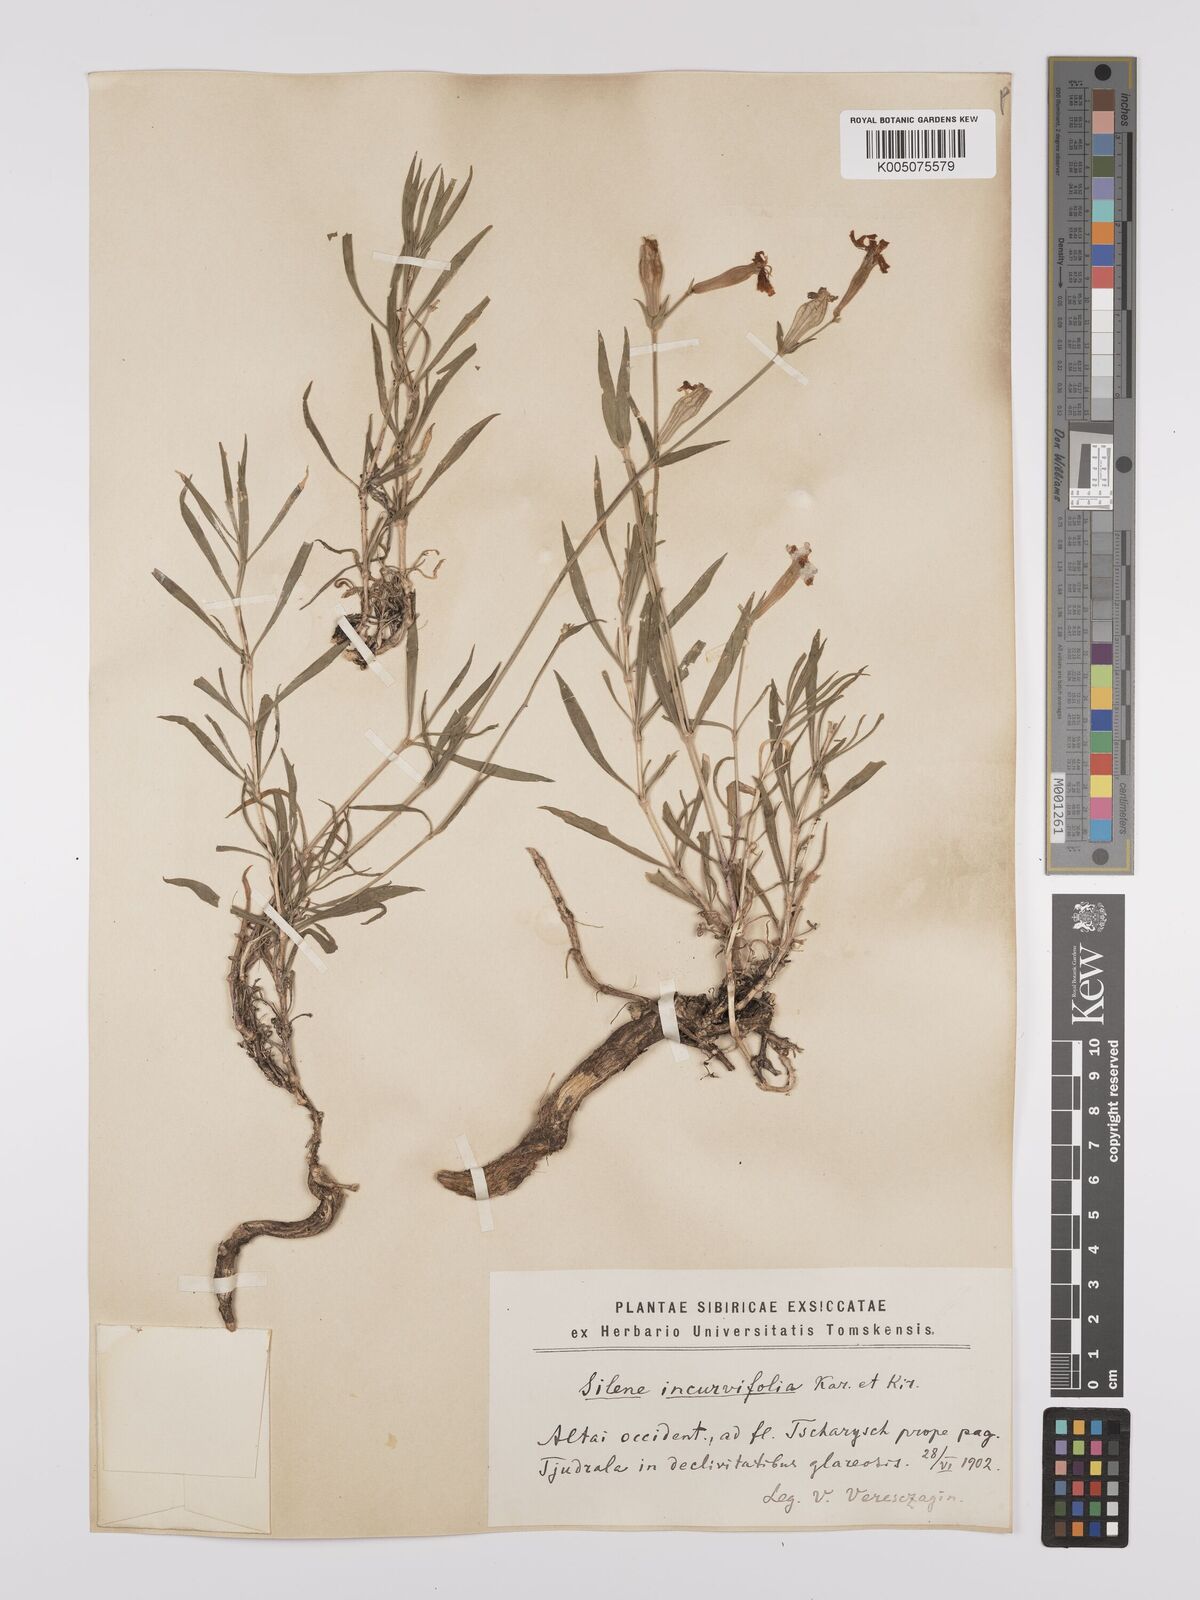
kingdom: Plantae
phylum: Tracheophyta
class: Magnoliopsida
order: Caryophyllales
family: Caryophyllaceae
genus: Silene
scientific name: Silene
